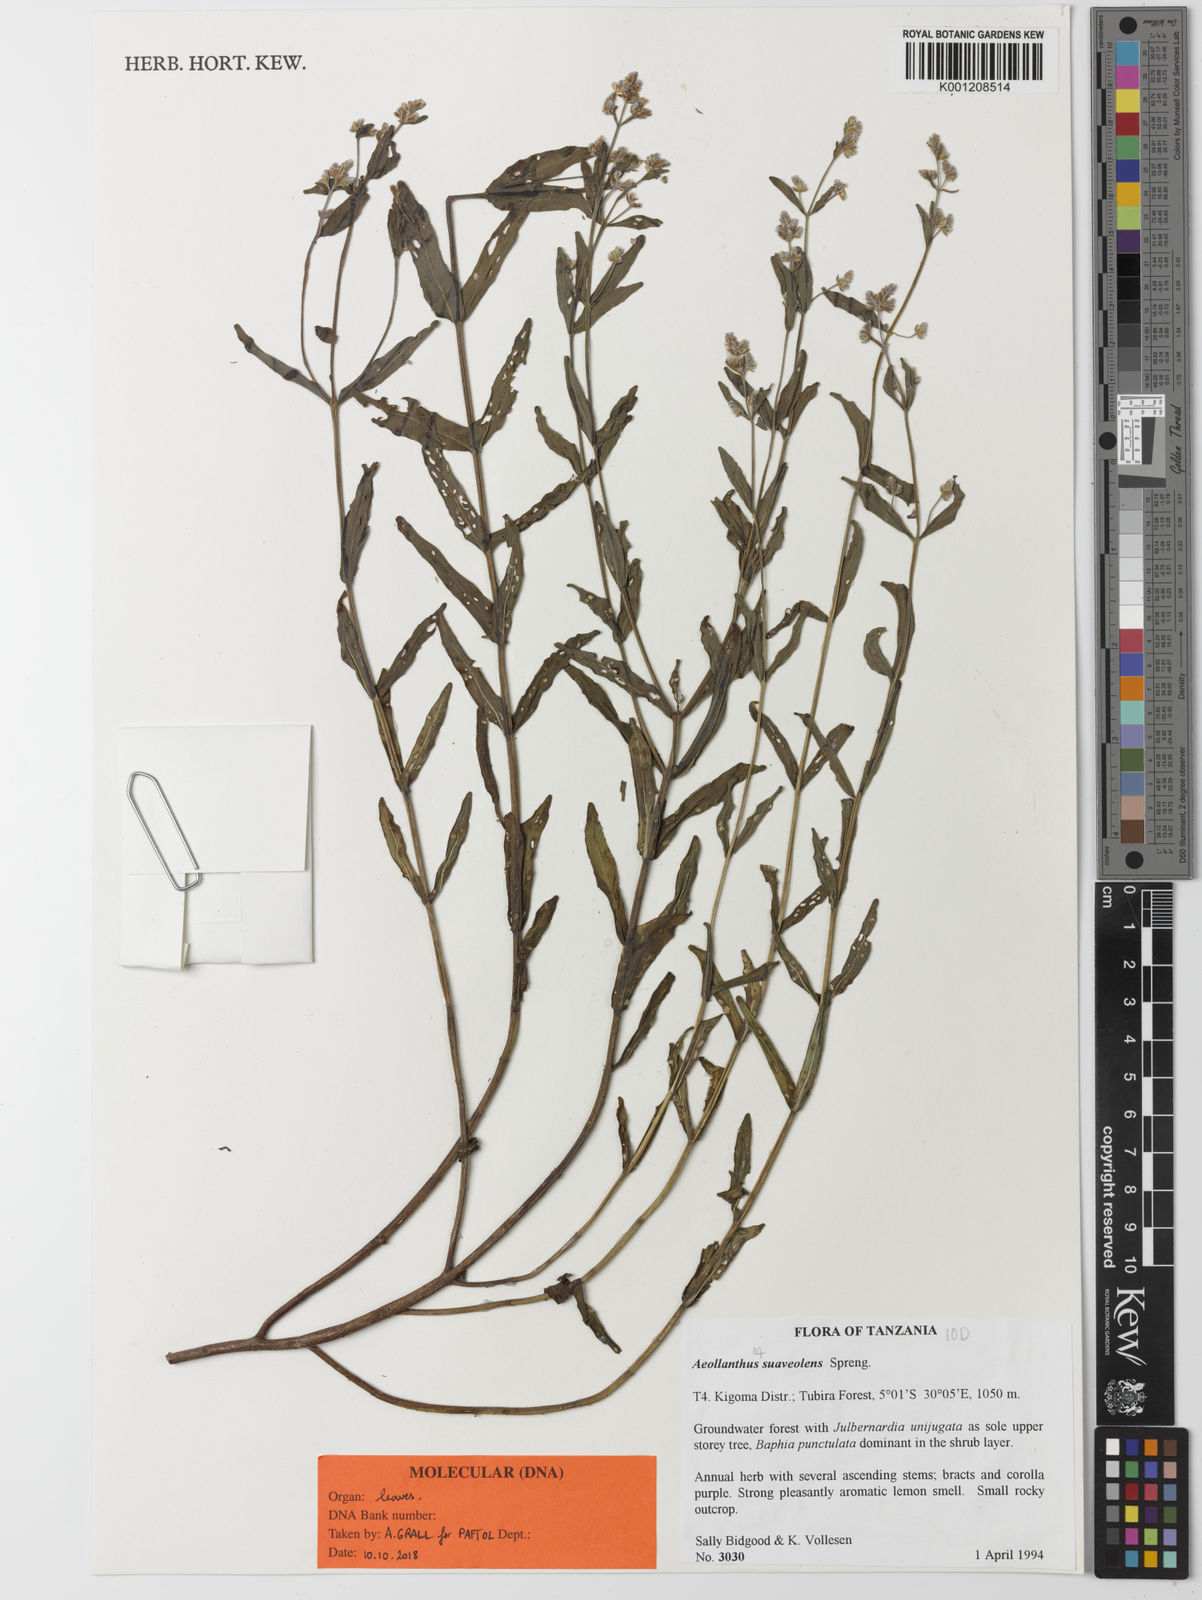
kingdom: Plantae
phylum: Tracheophyta
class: Magnoliopsida
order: Lamiales
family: Lamiaceae
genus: Aeollanthus
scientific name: Aeollanthus suaveolens
